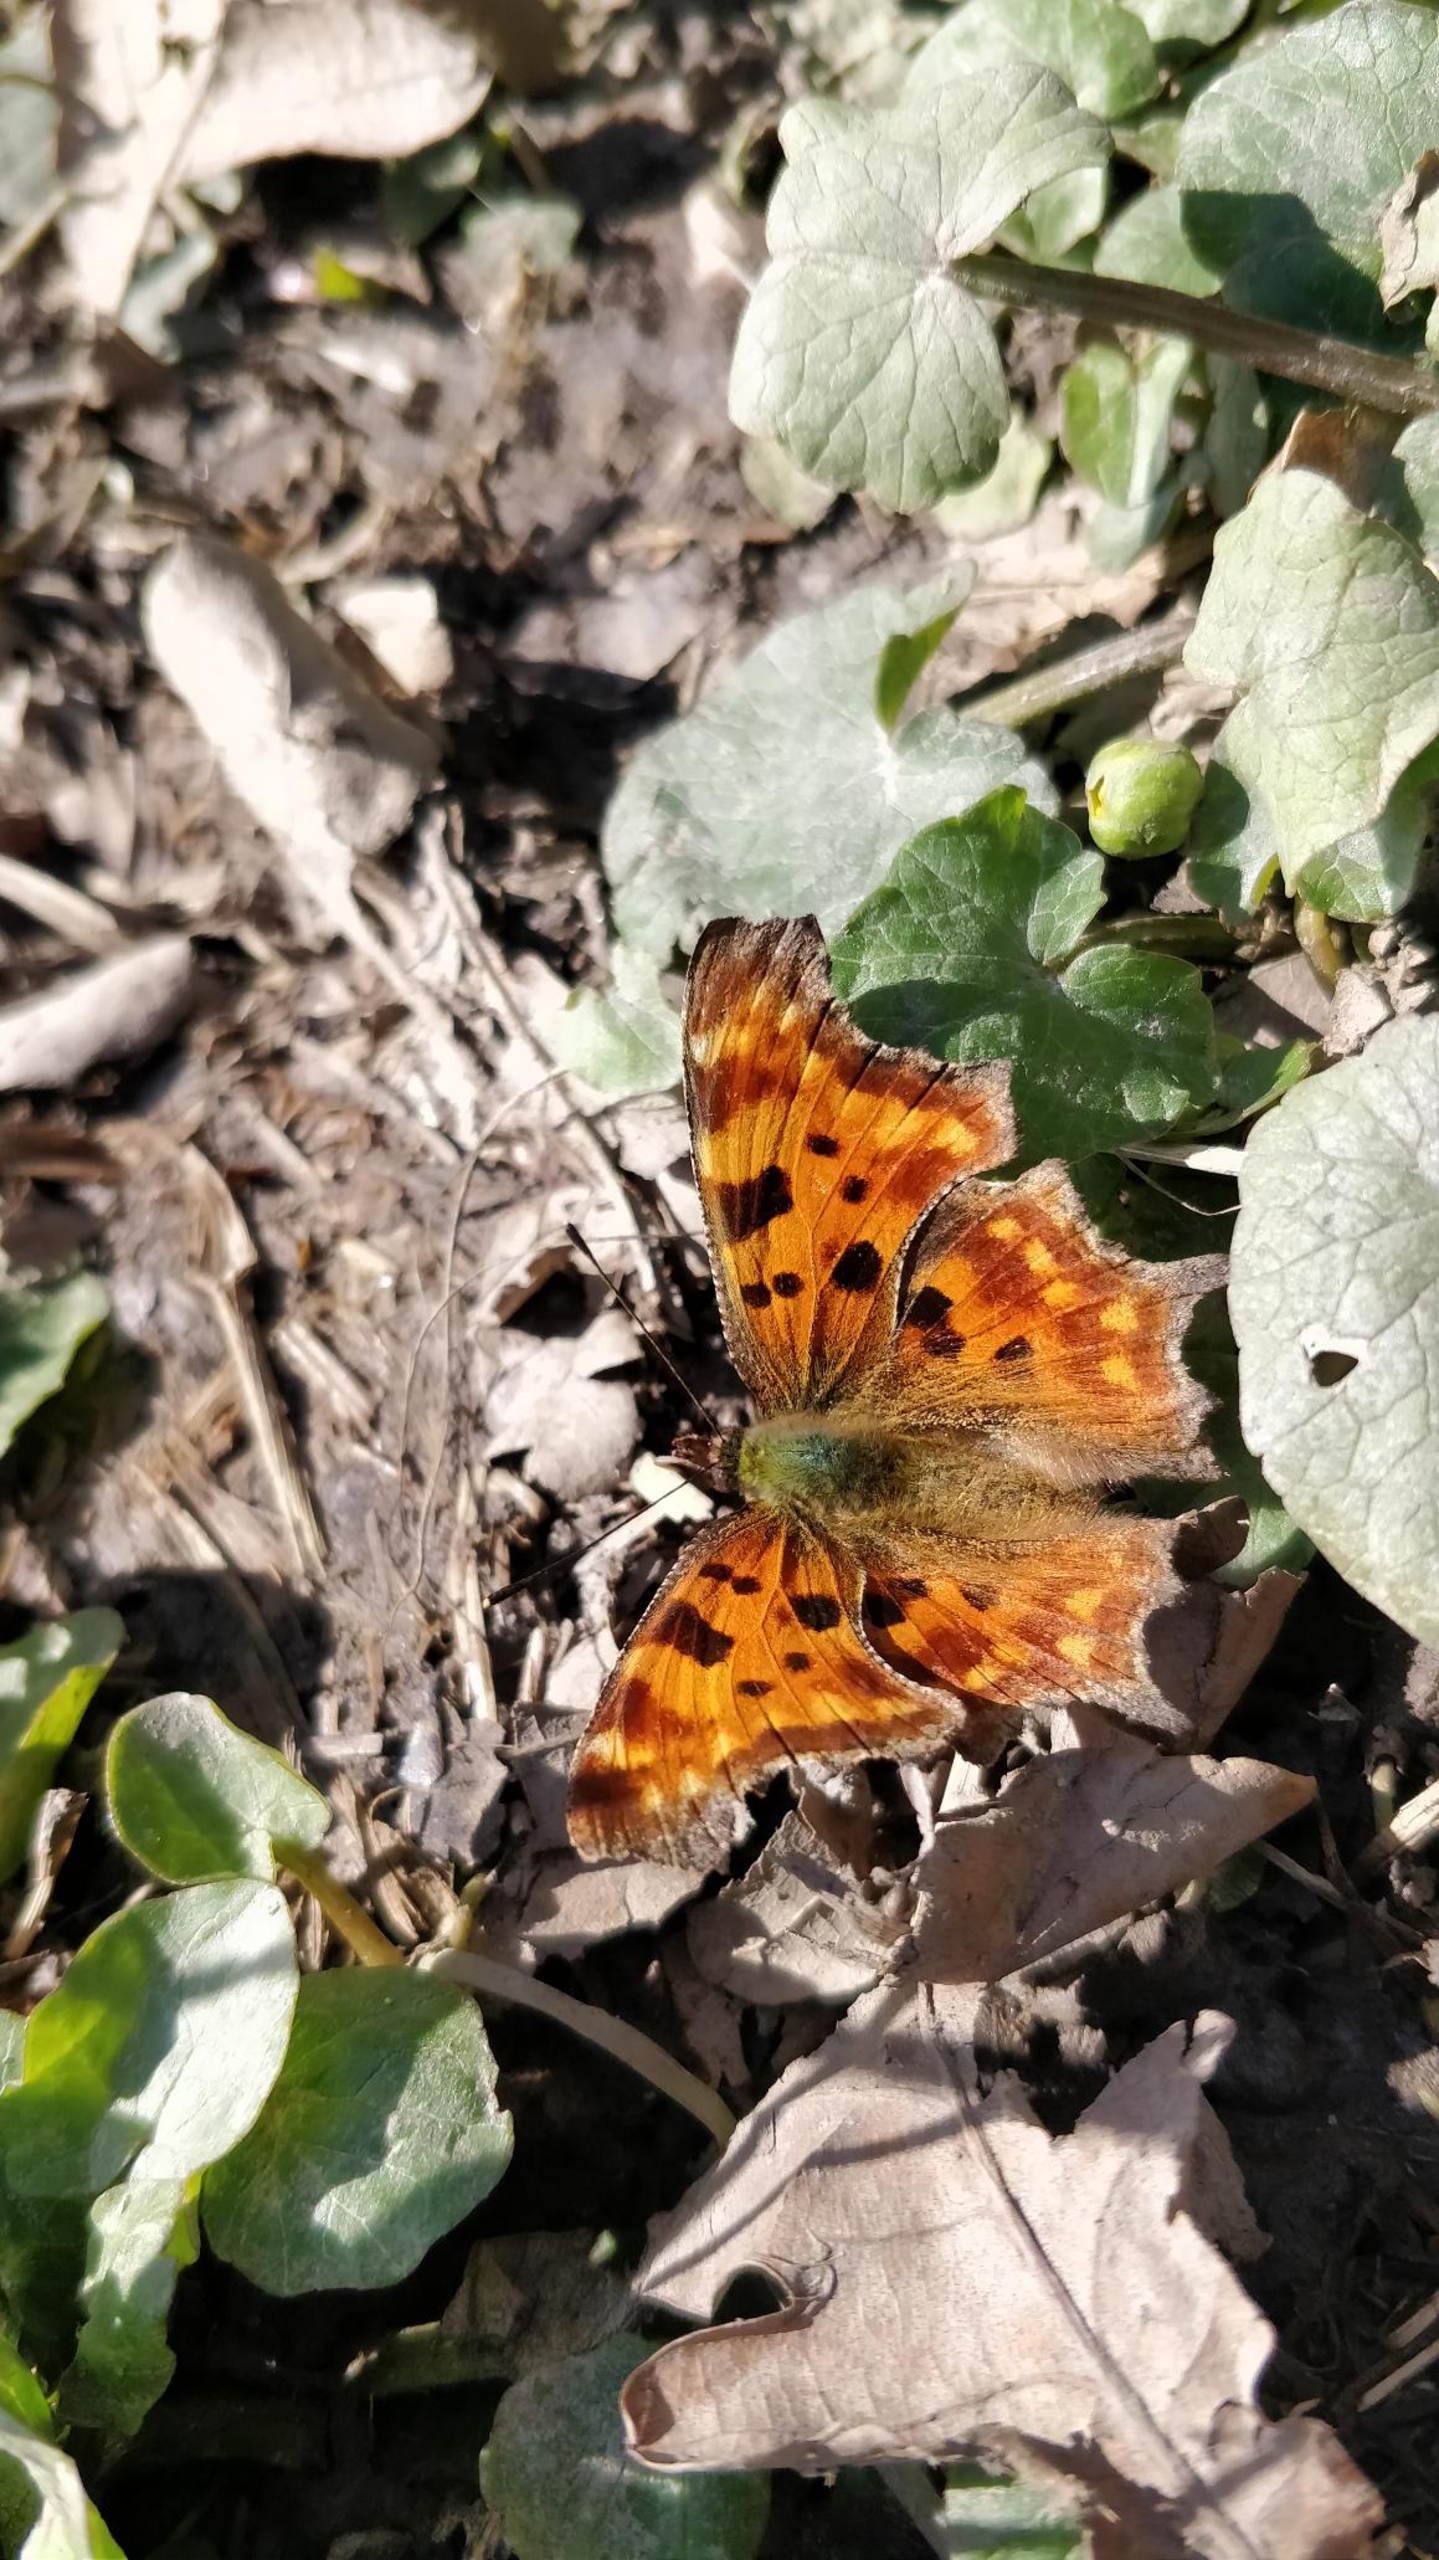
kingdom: Animalia
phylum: Arthropoda
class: Insecta
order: Lepidoptera
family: Nymphalidae
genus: Polygonia
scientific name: Polygonia c-album
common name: Det hvide C
